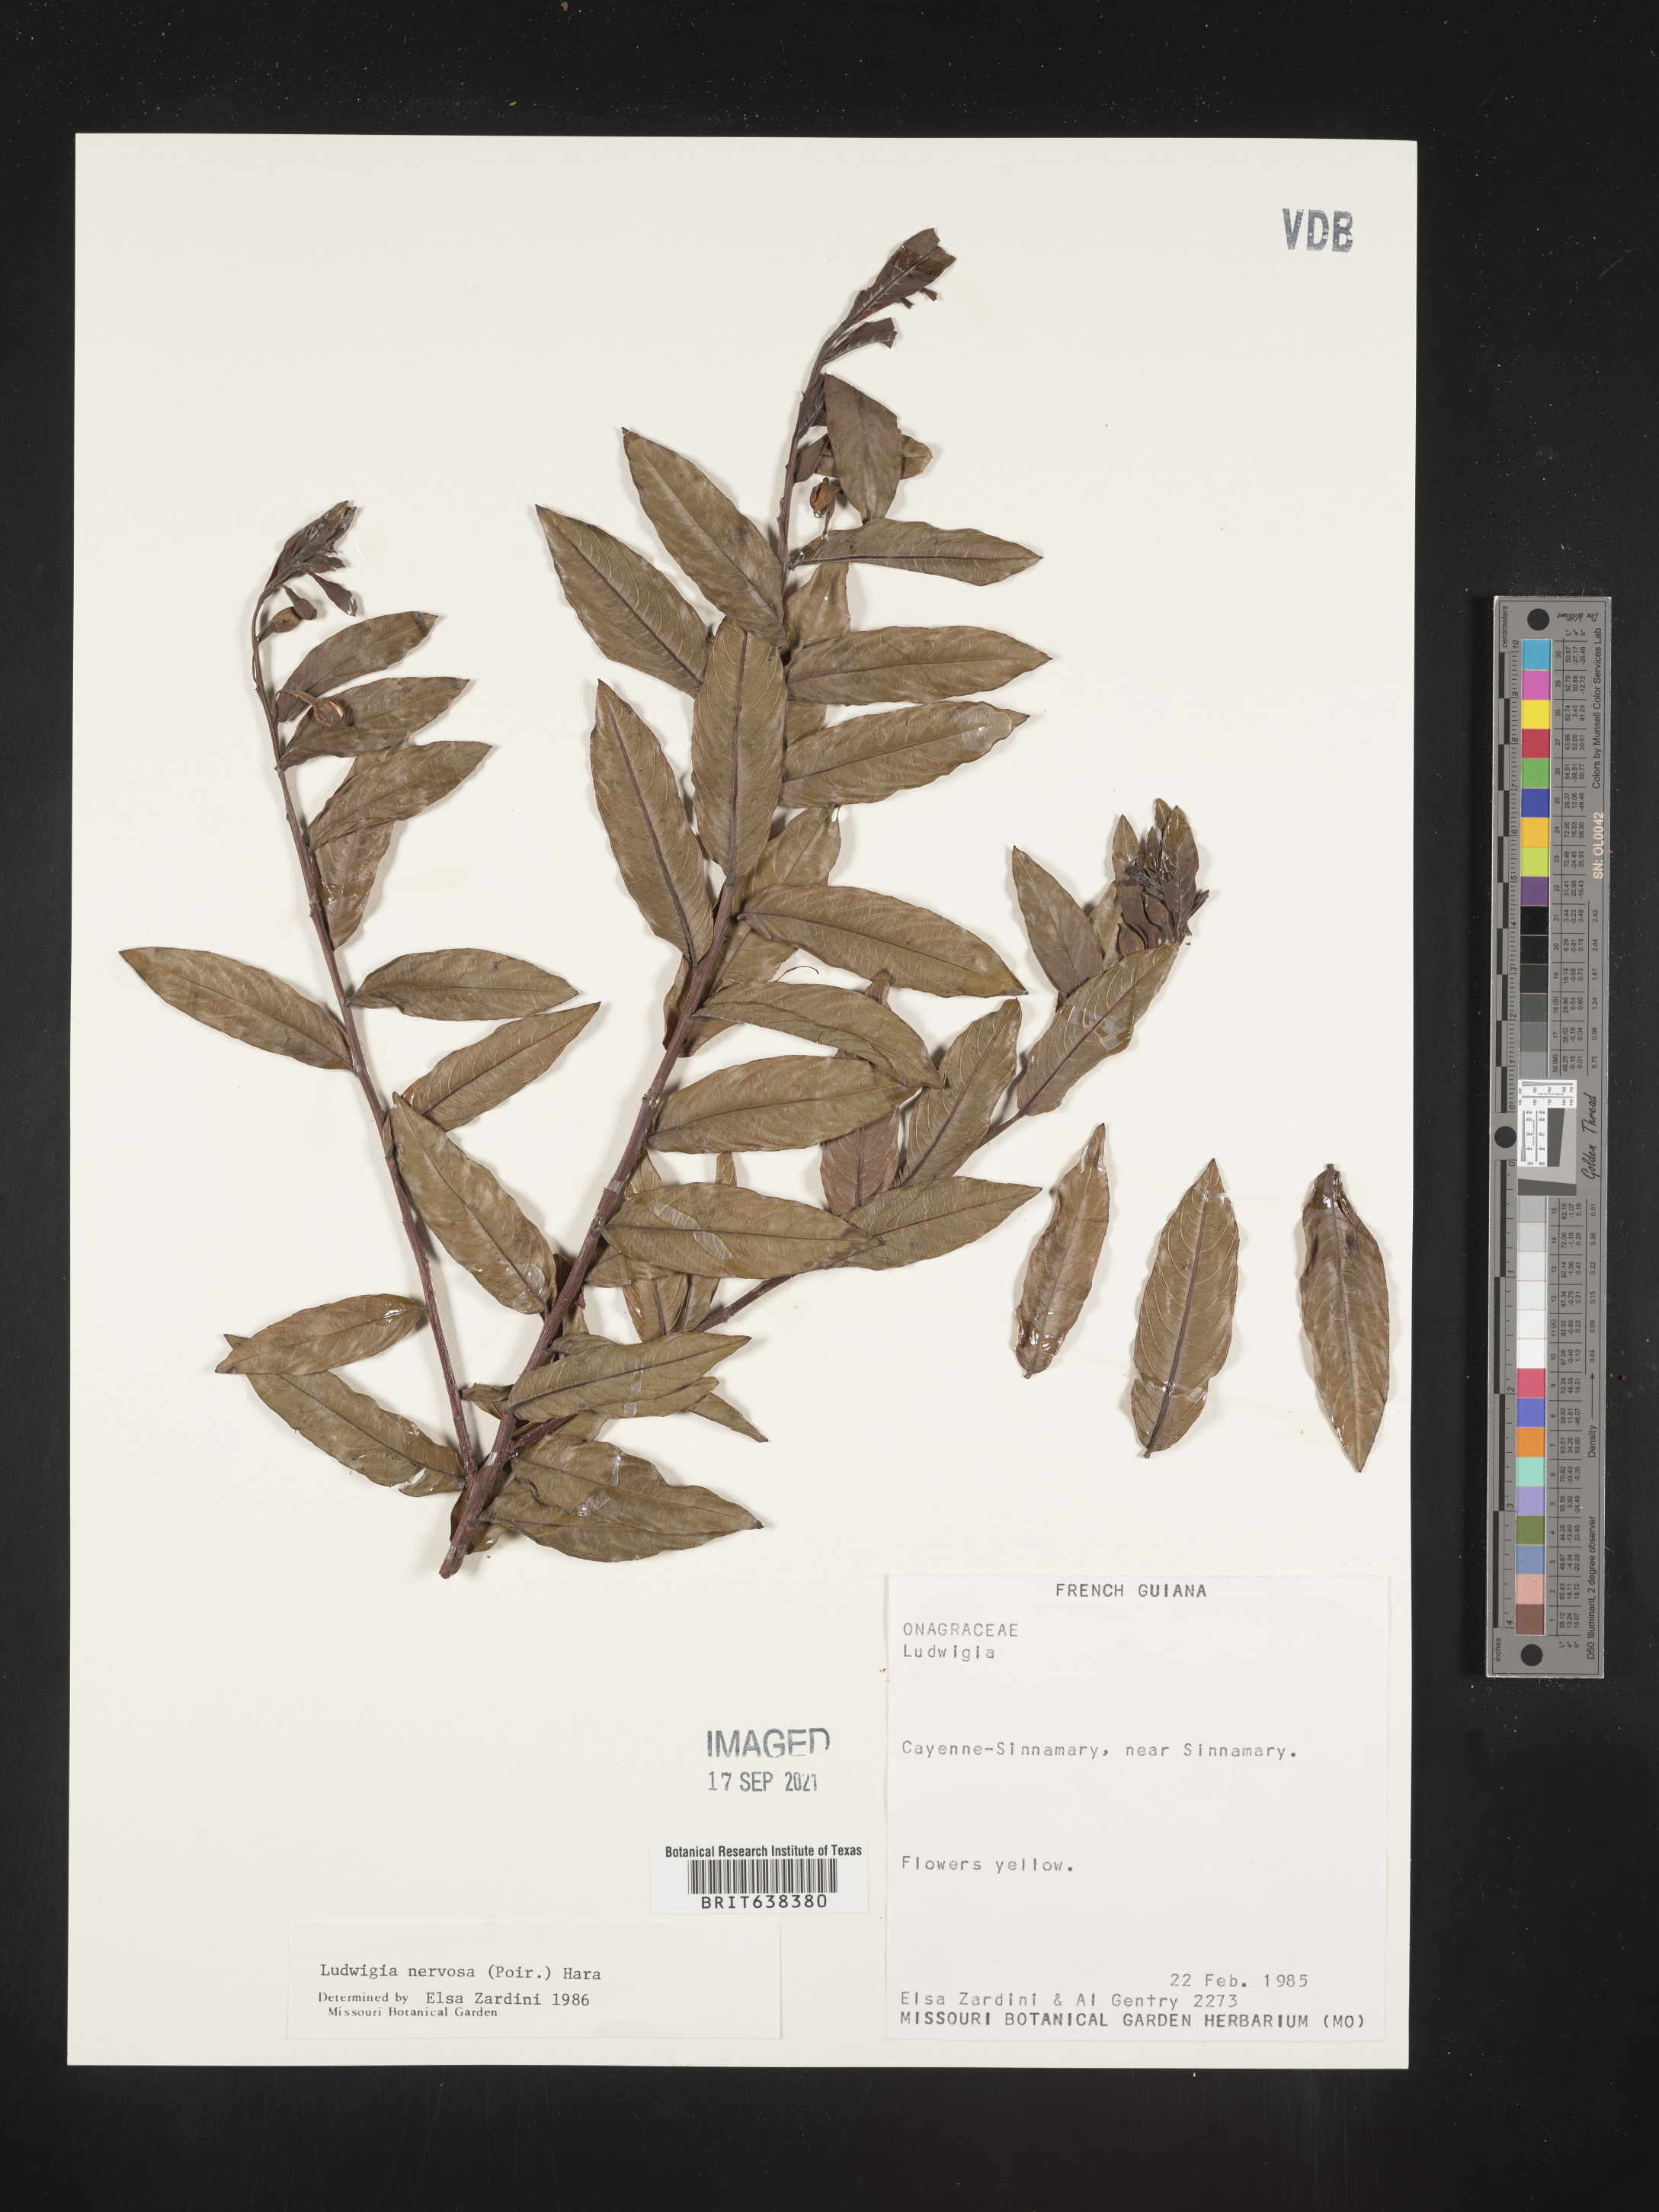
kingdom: Plantae
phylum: Tracheophyta
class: Magnoliopsida
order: Myrtales
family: Onagraceae
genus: Ludwigia
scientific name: Ludwigia
